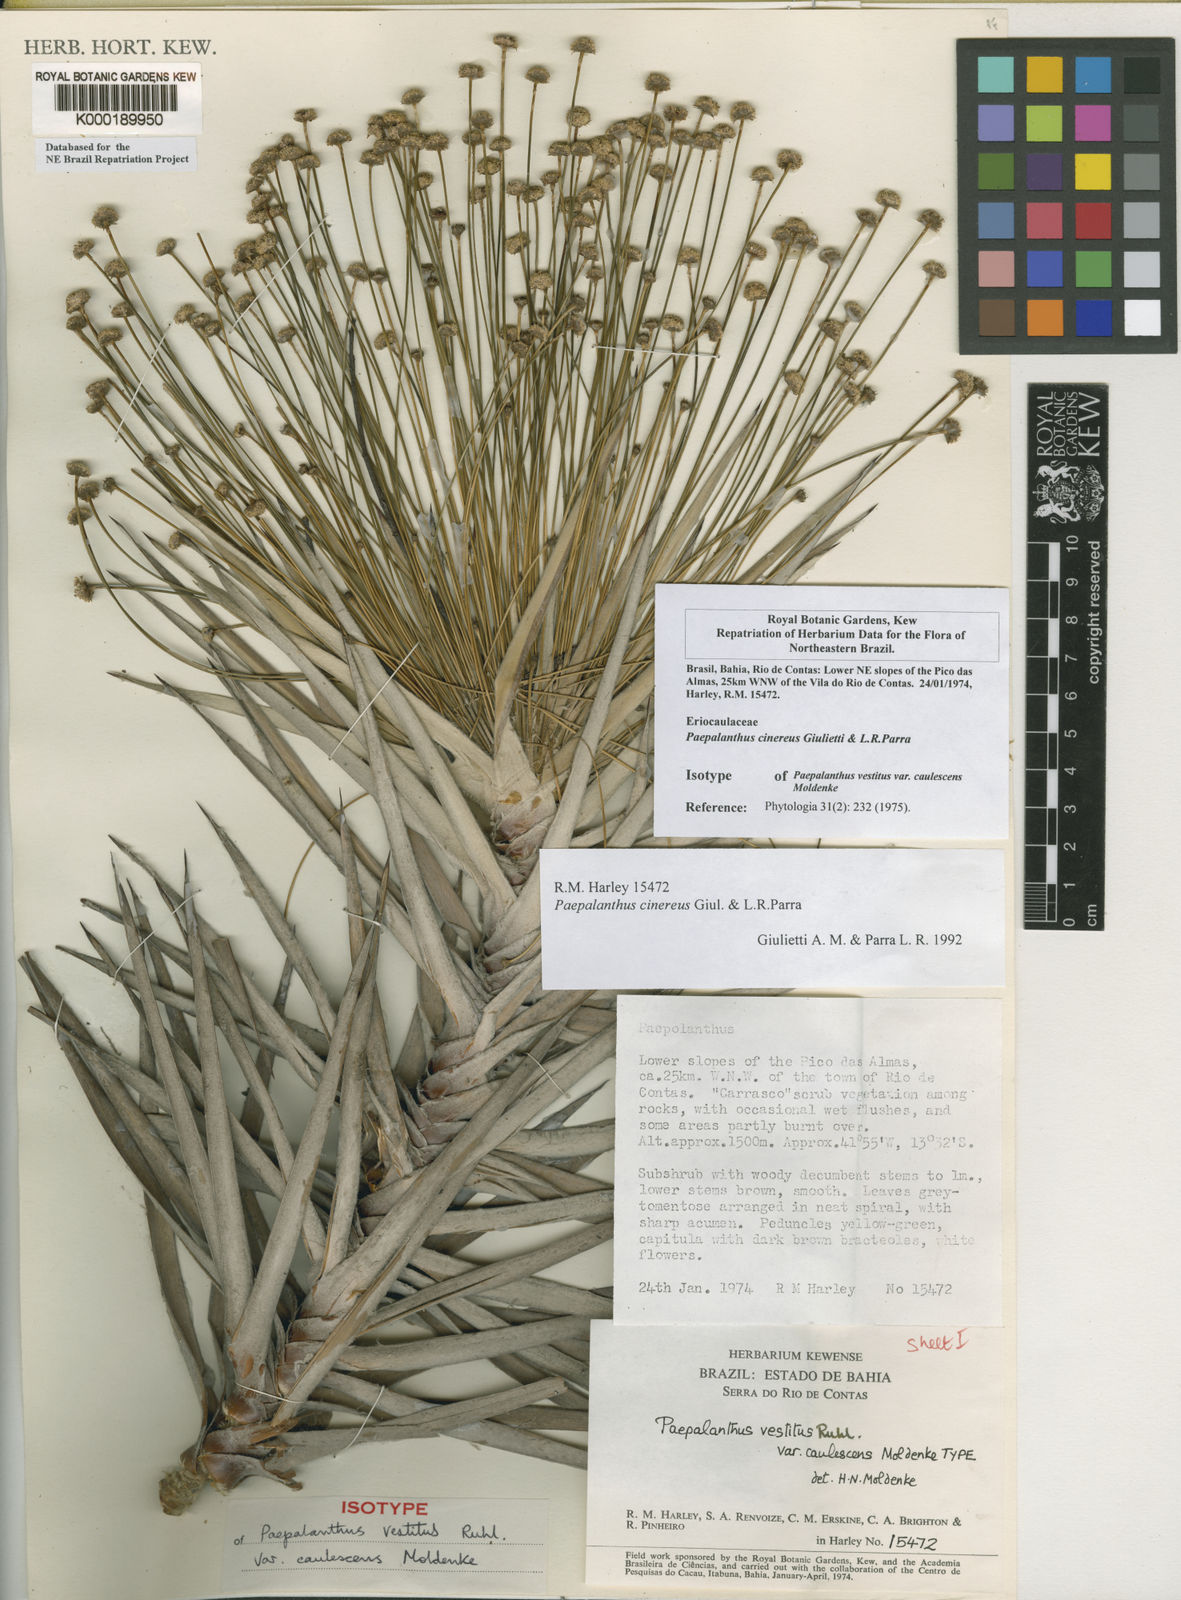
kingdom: Plantae
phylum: Tracheophyta
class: Liliopsida
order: Poales
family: Eriocaulaceae
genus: Paepalanthus
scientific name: Paepalanthus cinereus
